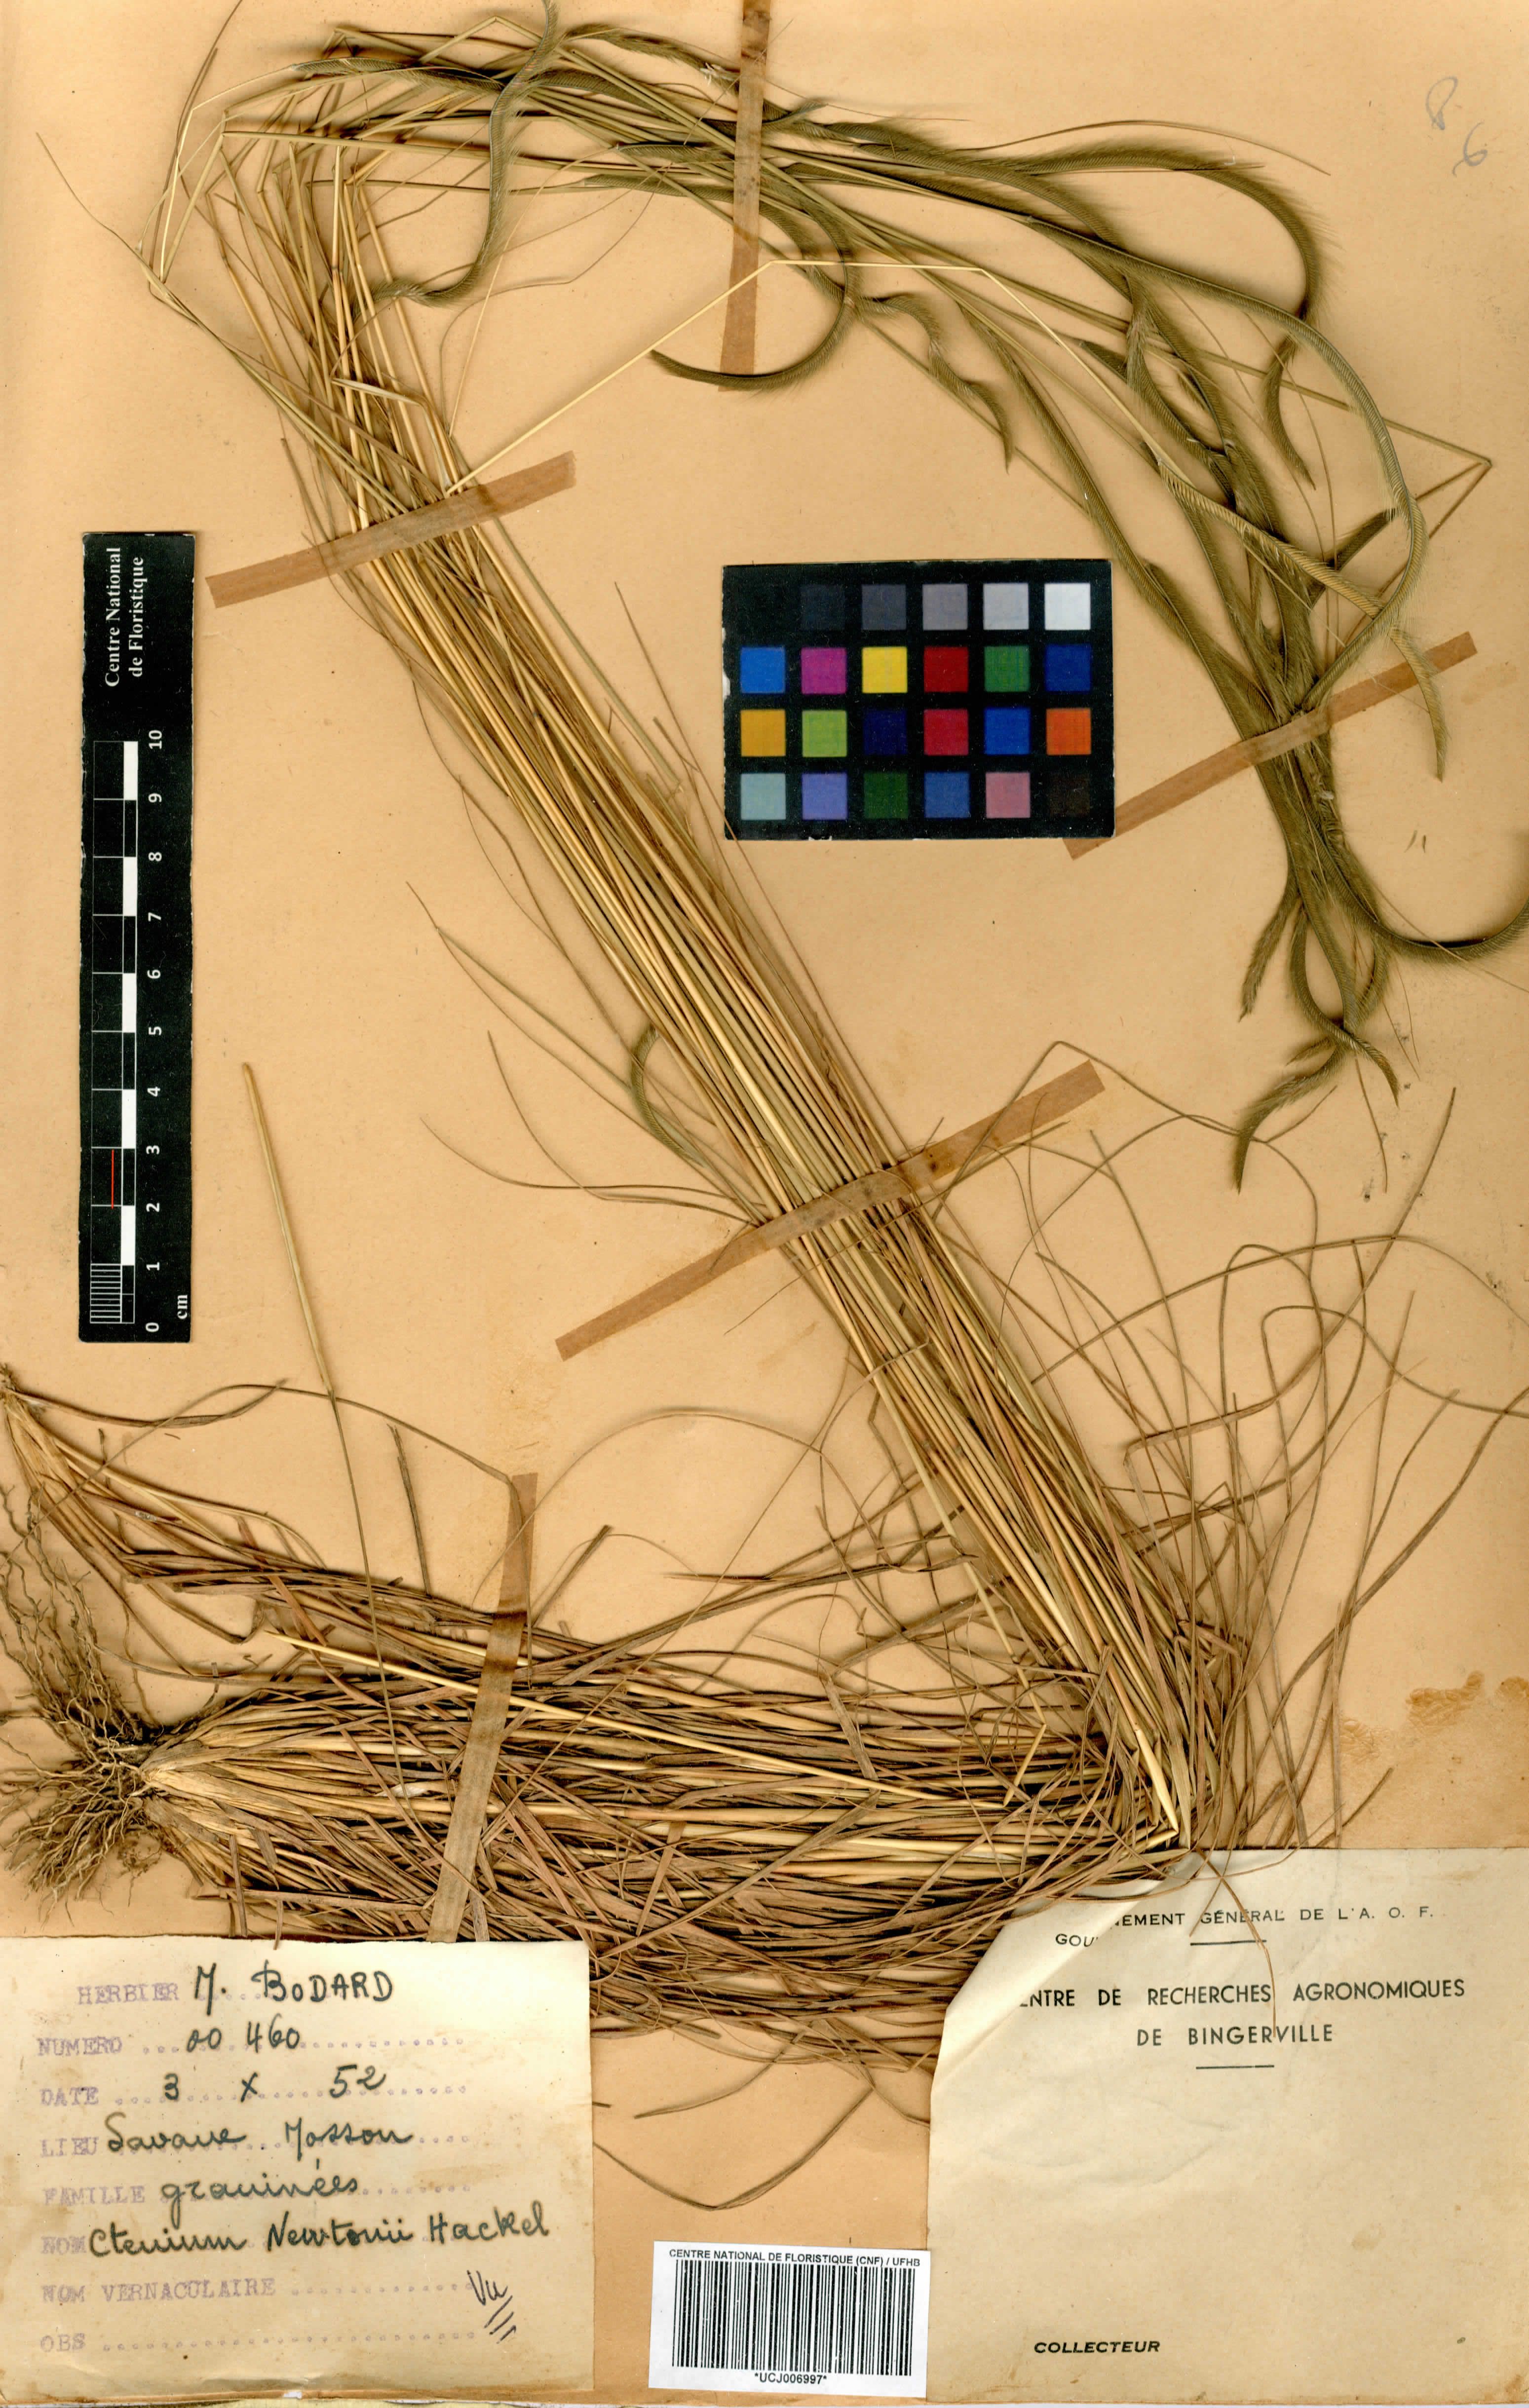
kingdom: Plantae
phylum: Tracheophyta
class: Liliopsida
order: Poales
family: Poaceae
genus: Ctenium
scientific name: Ctenium newtonii
